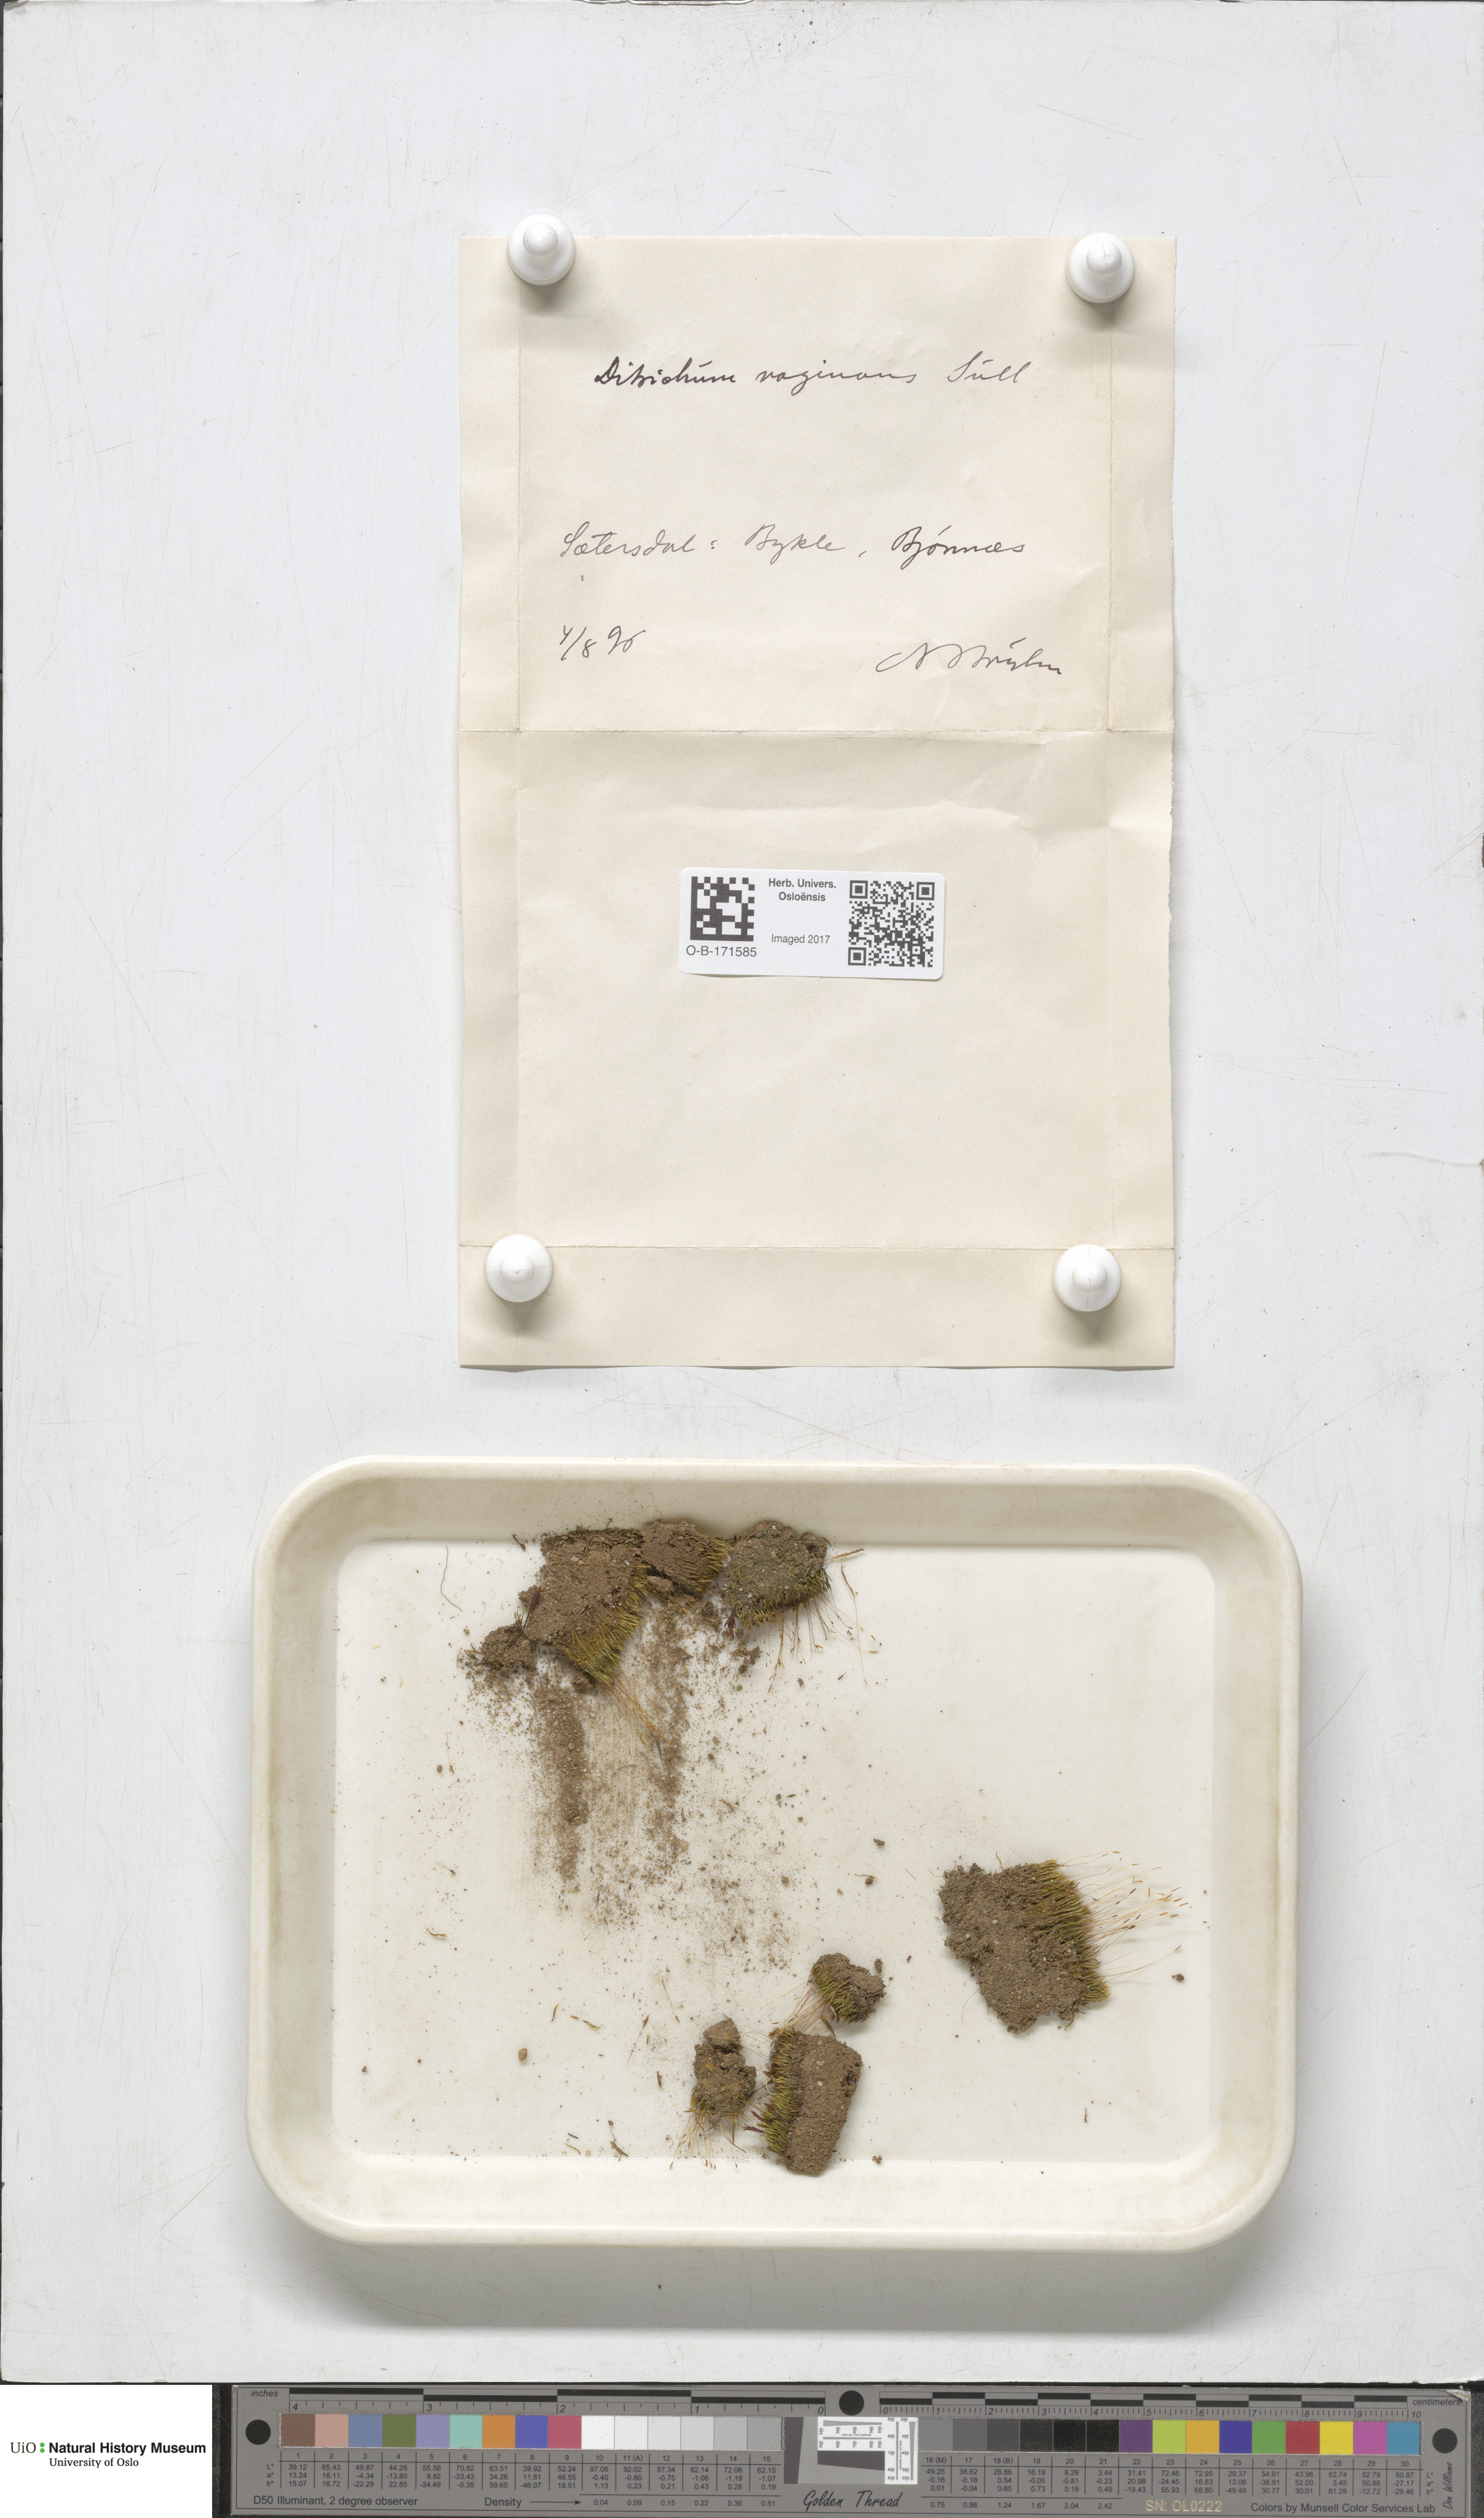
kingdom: Plantae
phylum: Bryophyta
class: Bryopsida
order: Dicranales
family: Ditrichaceae
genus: Ditrichum
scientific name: Ditrichum lineare
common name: Dark cow-hair moss
